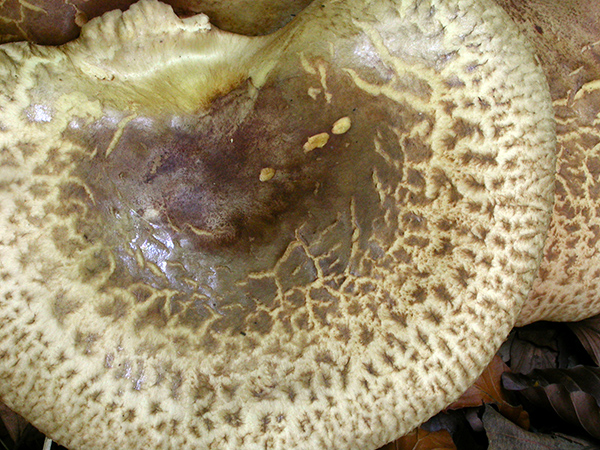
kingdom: Fungi
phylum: Basidiomycota
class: Agaricomycetes
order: Boletales
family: Paxillaceae
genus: Paxillus
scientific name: Paxillus rubicundulus
